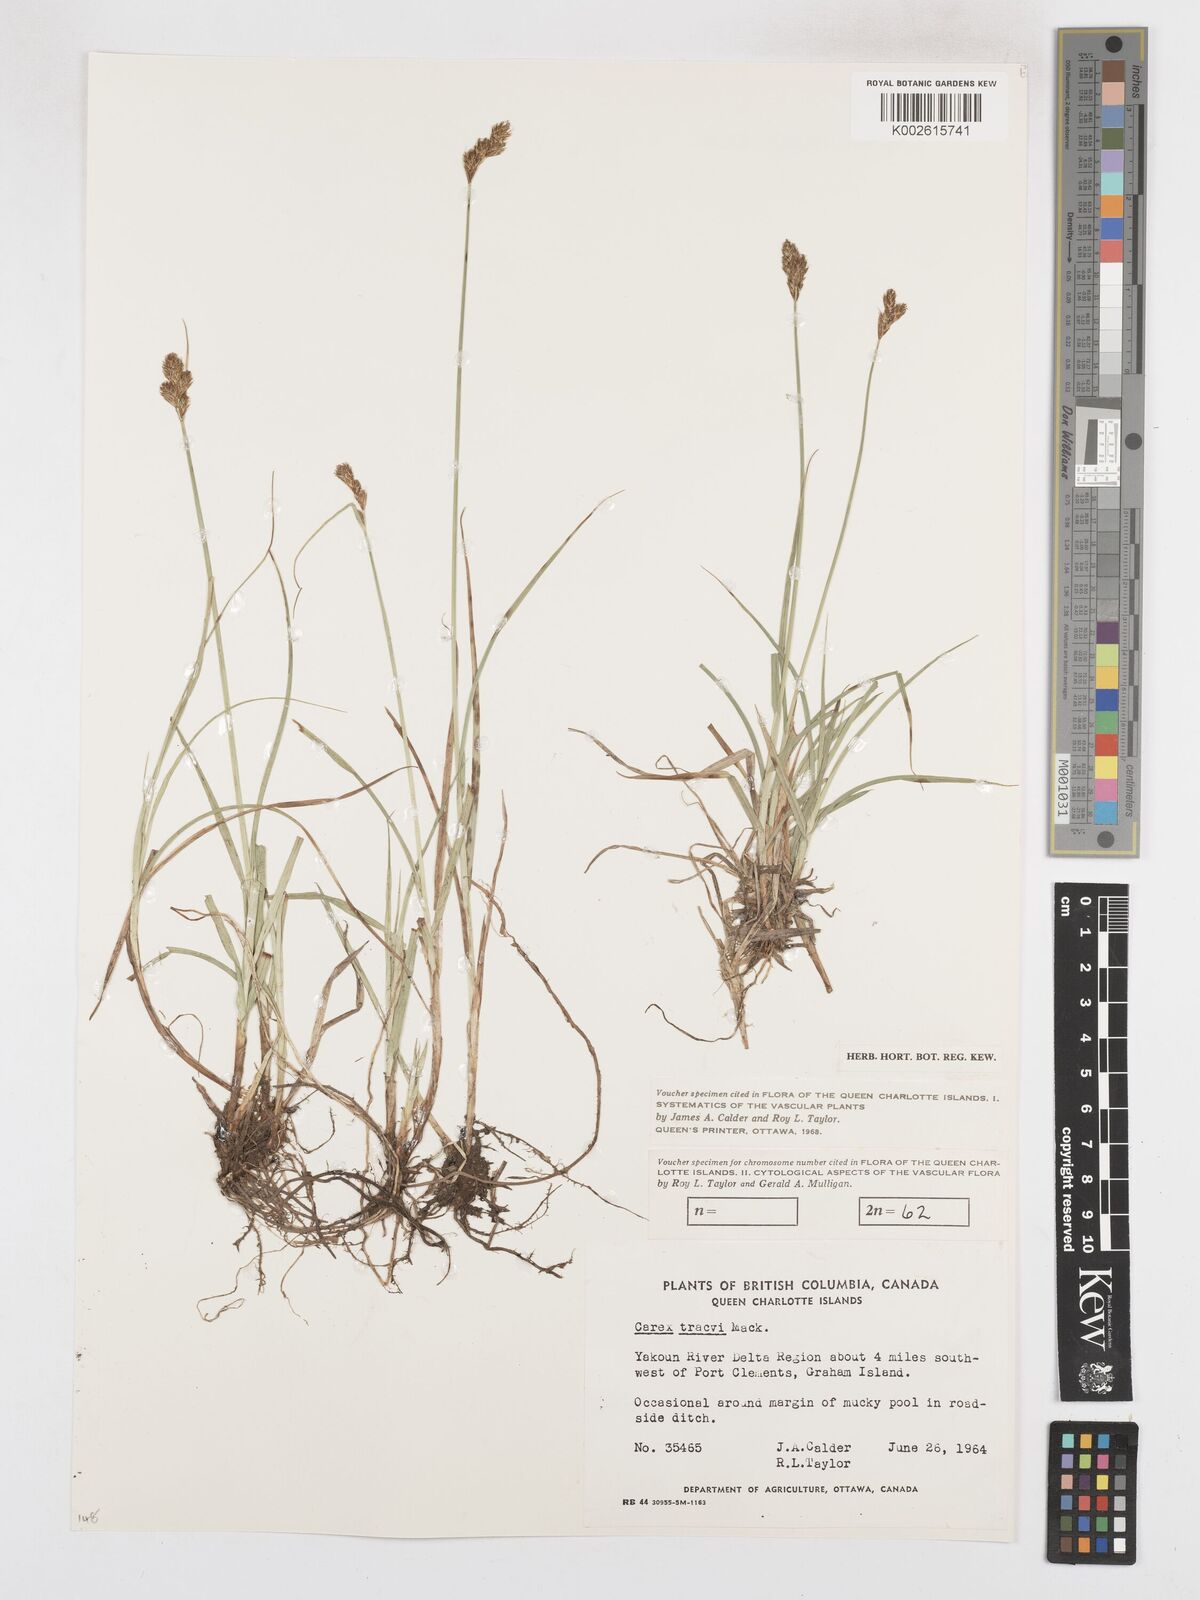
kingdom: Plantae
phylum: Tracheophyta
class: Liliopsida
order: Poales
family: Cyperaceae
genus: Carex
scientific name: Carex leporina
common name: Oval sedge
